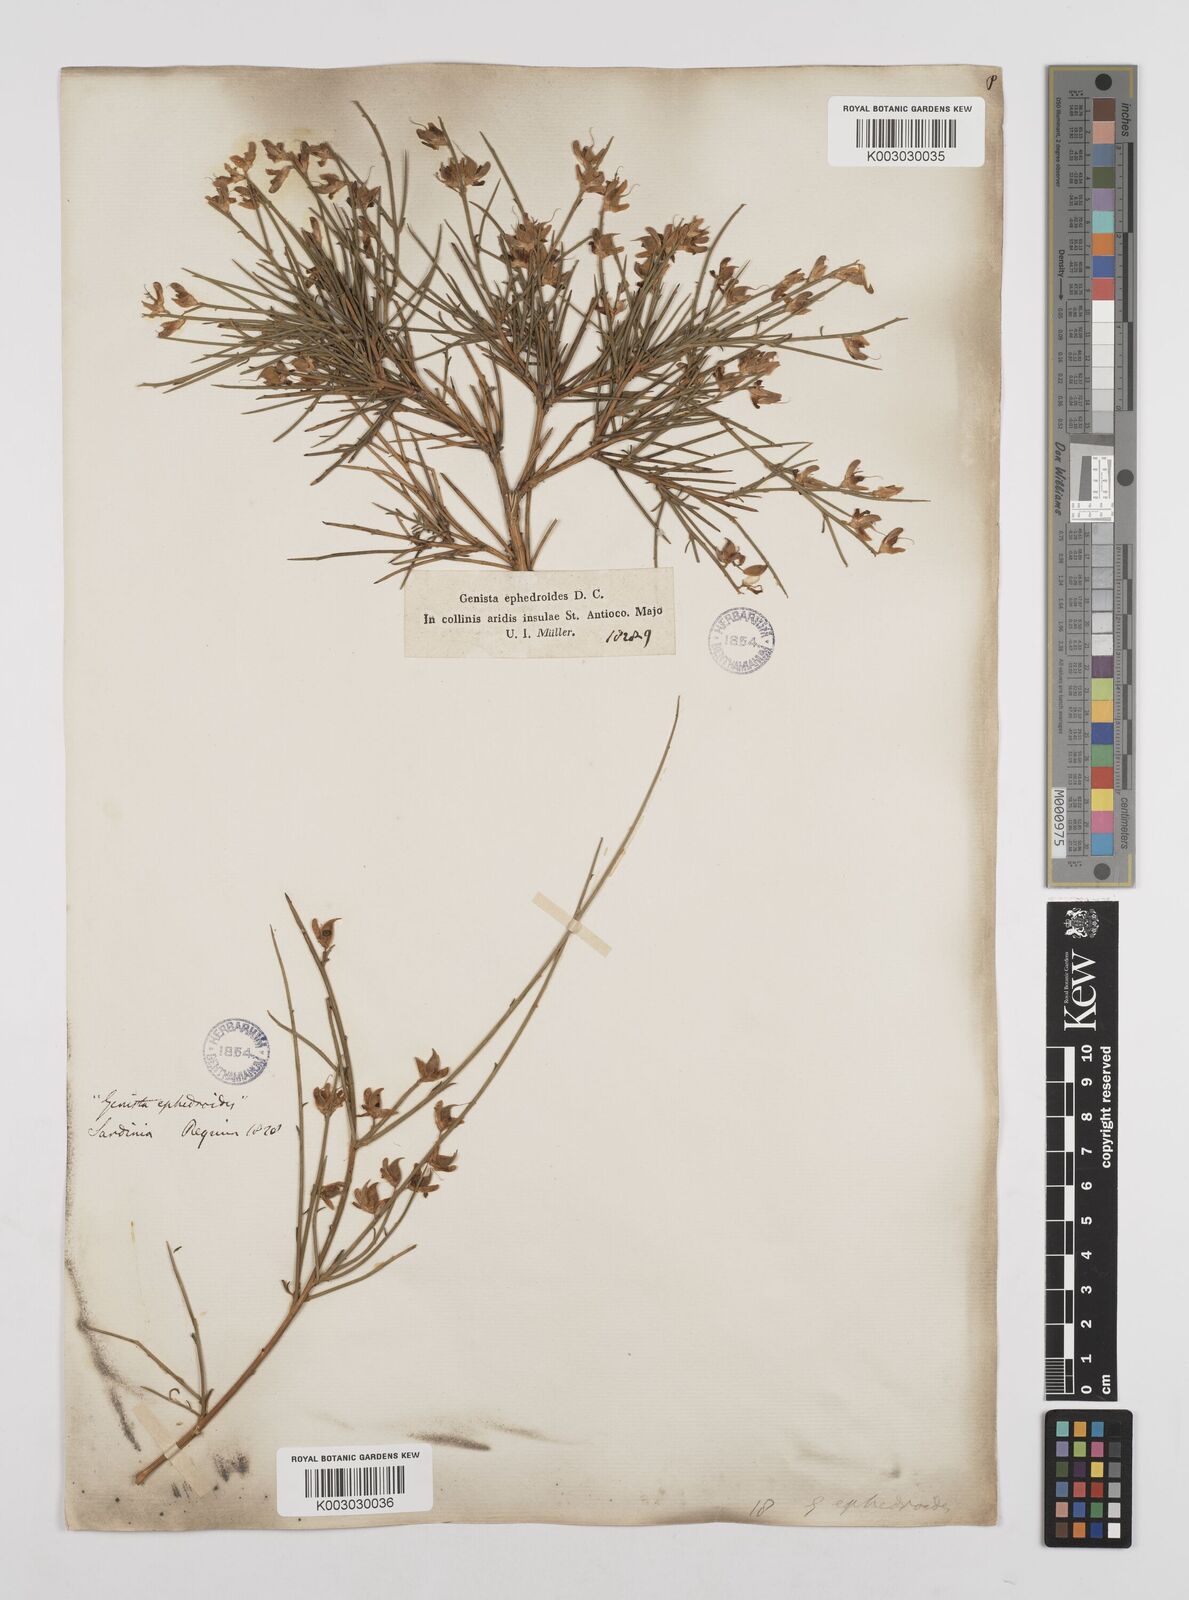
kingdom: Plantae
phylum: Tracheophyta
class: Magnoliopsida
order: Fabales
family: Fabaceae
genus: Genista
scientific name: Genista ephedroides
